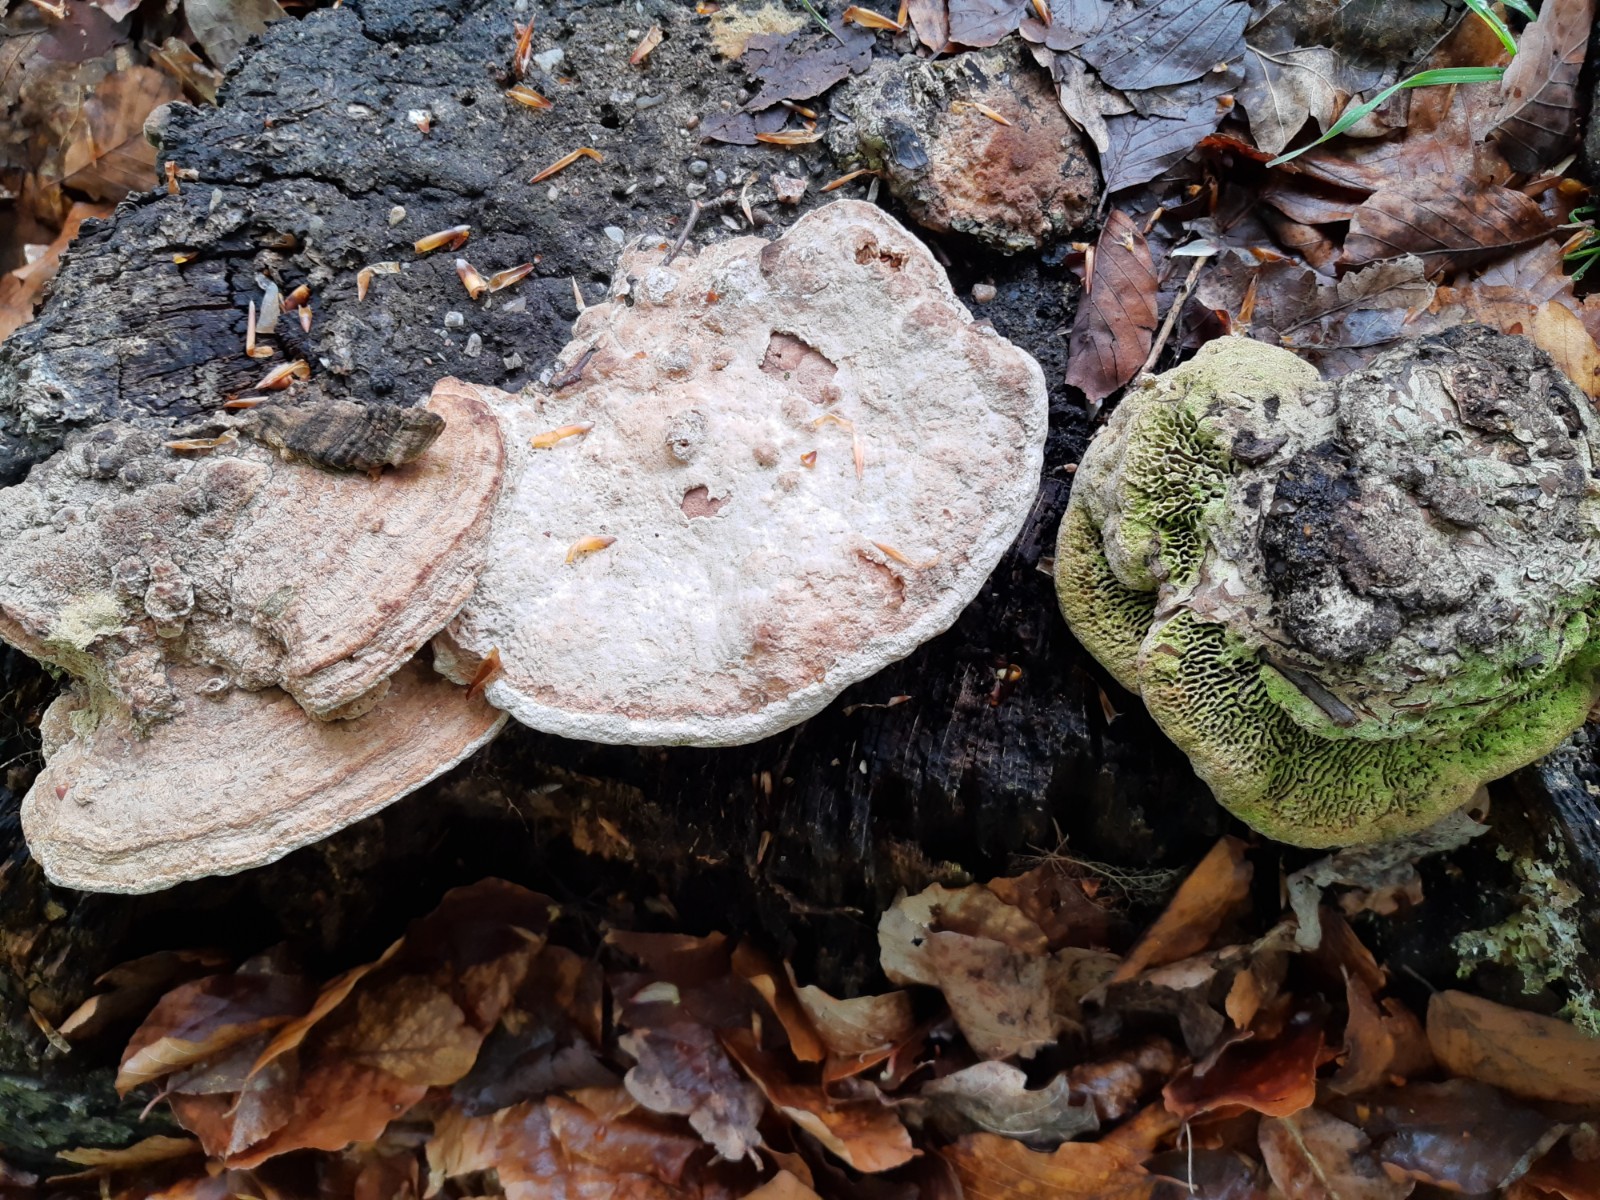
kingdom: Fungi
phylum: Basidiomycota
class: Agaricomycetes
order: Polyporales
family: Fomitopsidaceae
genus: Daedalea
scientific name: Daedalea quercina
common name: ege-labyrintsvamp
